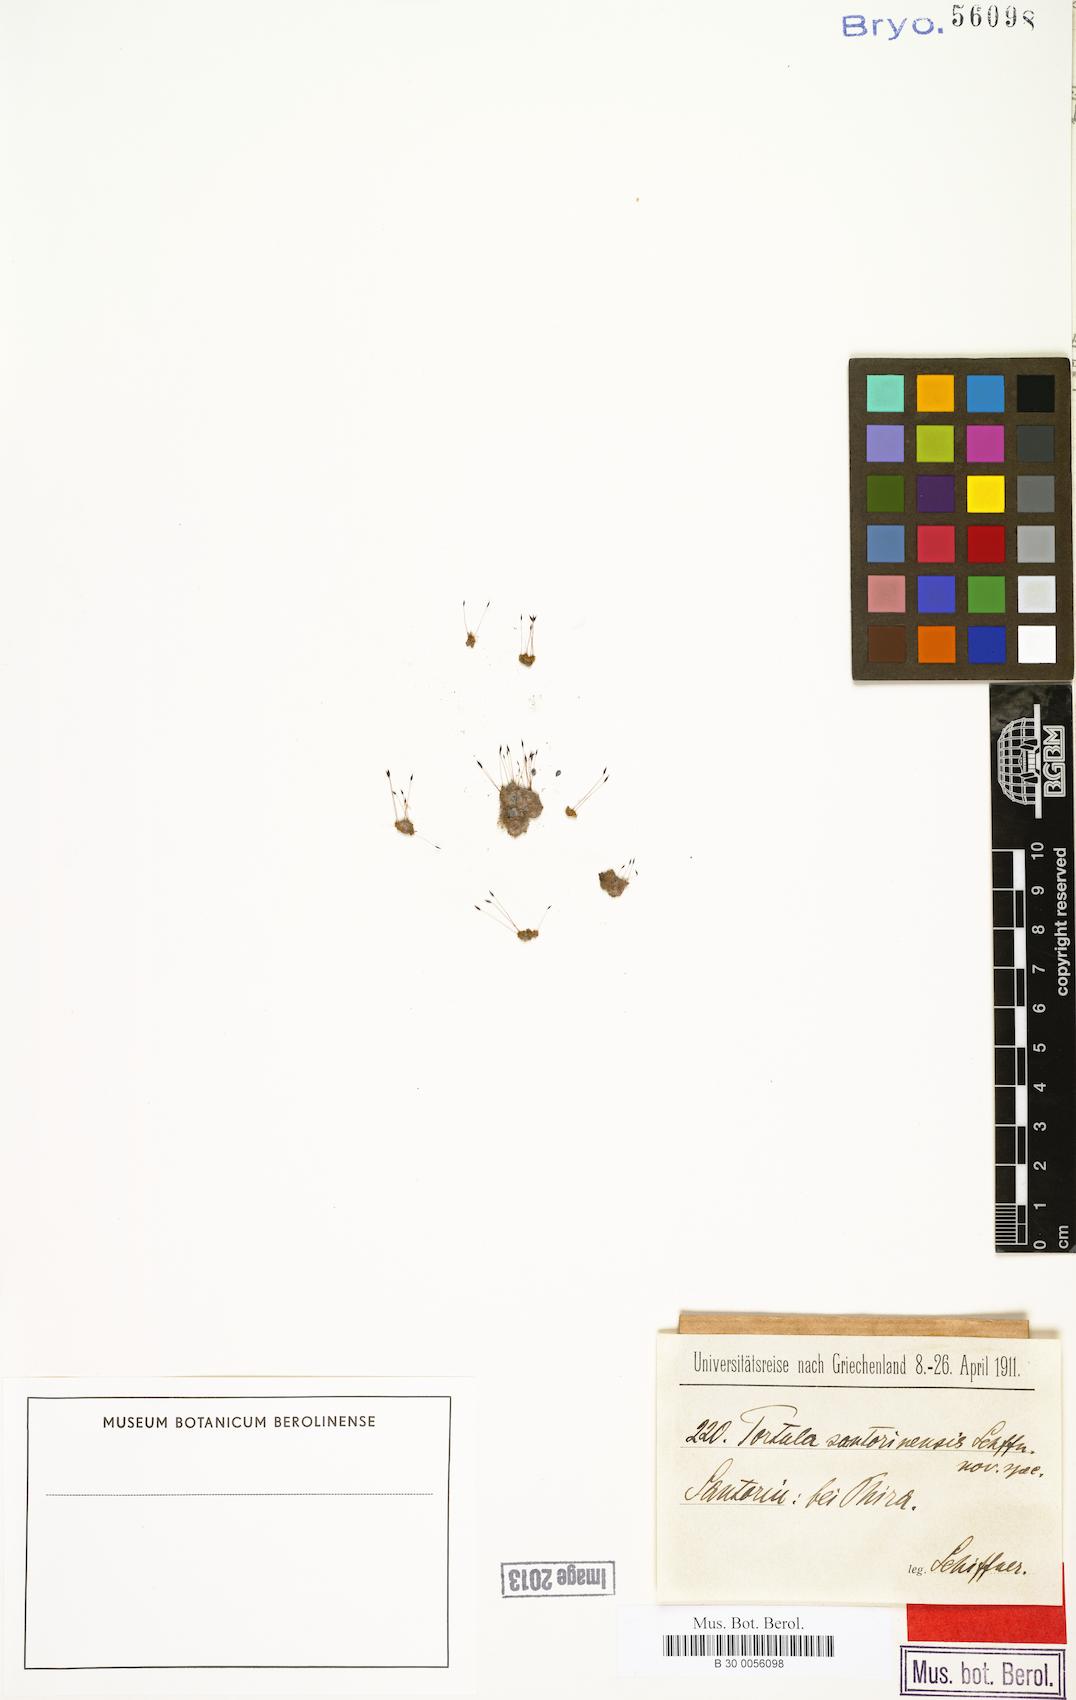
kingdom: Plantae
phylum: Bryophyta
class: Bryopsida
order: Pottiales
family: Pottiaceae
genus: Tortula
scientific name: Tortula solmsii
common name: Solms' screw-moss
